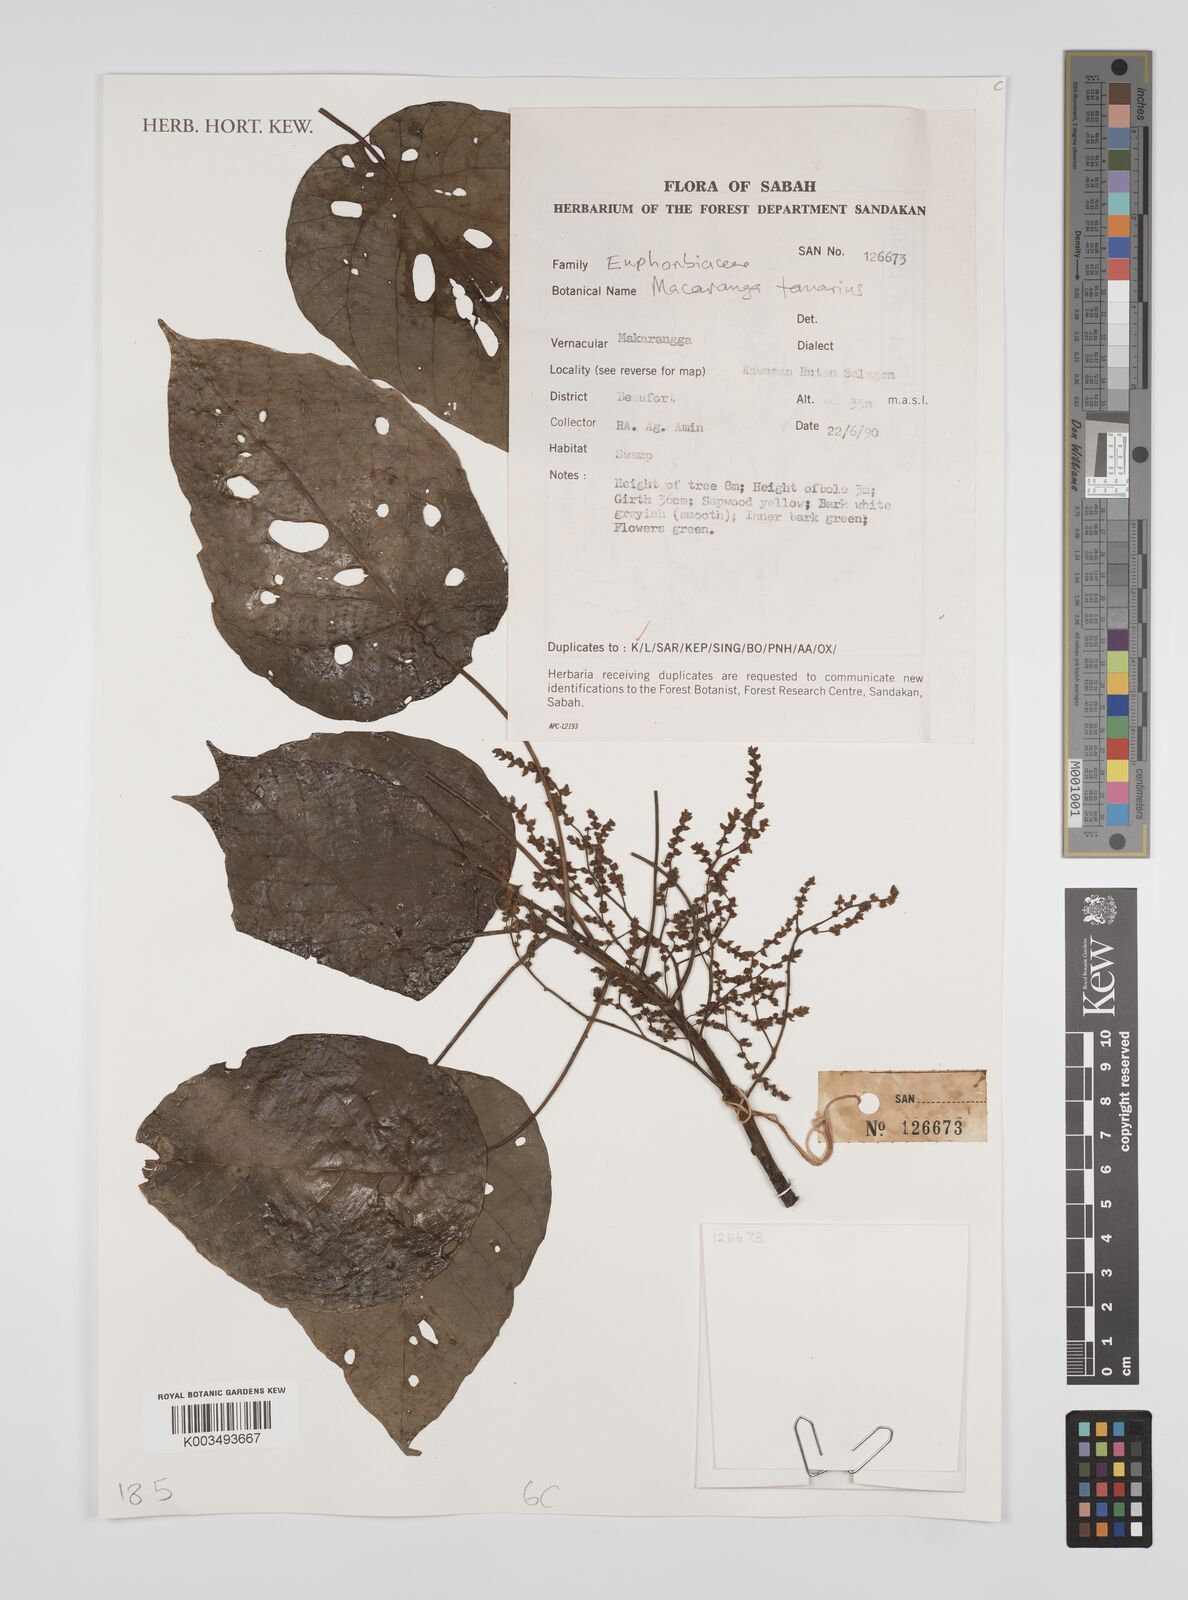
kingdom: Plantae
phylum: Tracheophyta
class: Magnoliopsida
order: Malpighiales
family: Euphorbiaceae
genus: Macaranga
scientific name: Macaranga tanarius
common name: Parasol leaf tree
